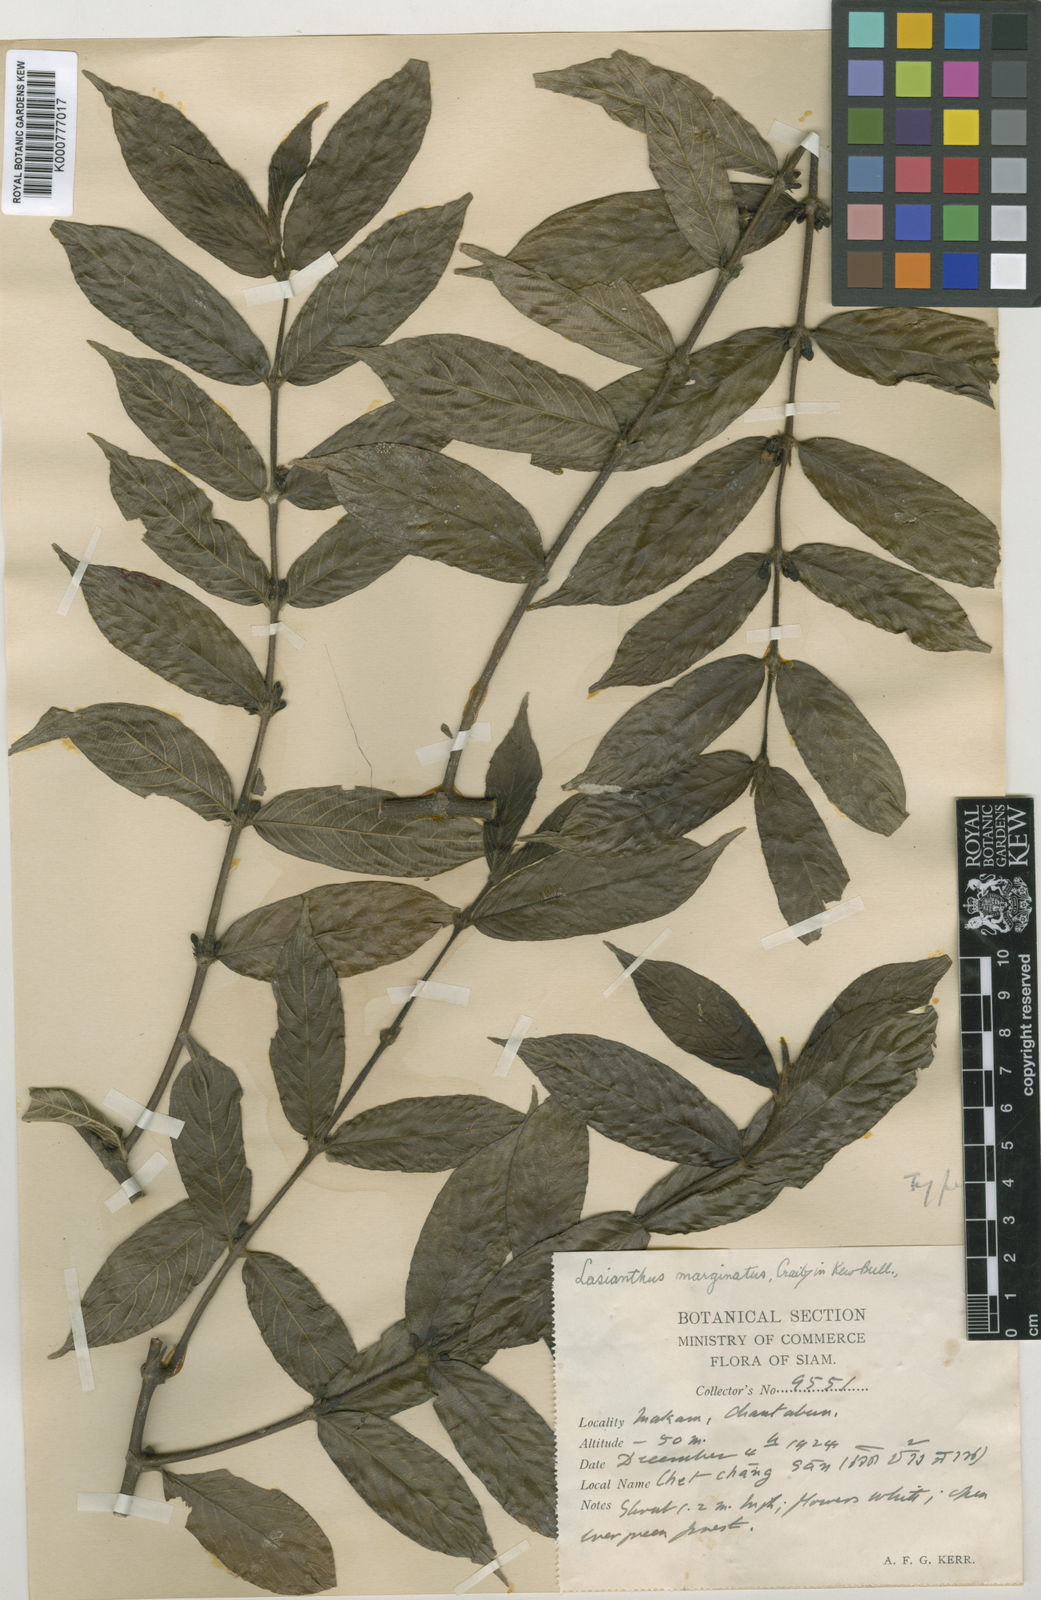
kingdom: Plantae
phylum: Tracheophyta
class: Magnoliopsida
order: Gentianales
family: Rubiaceae
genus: Lasianthus
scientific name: Lasianthus marginatus
